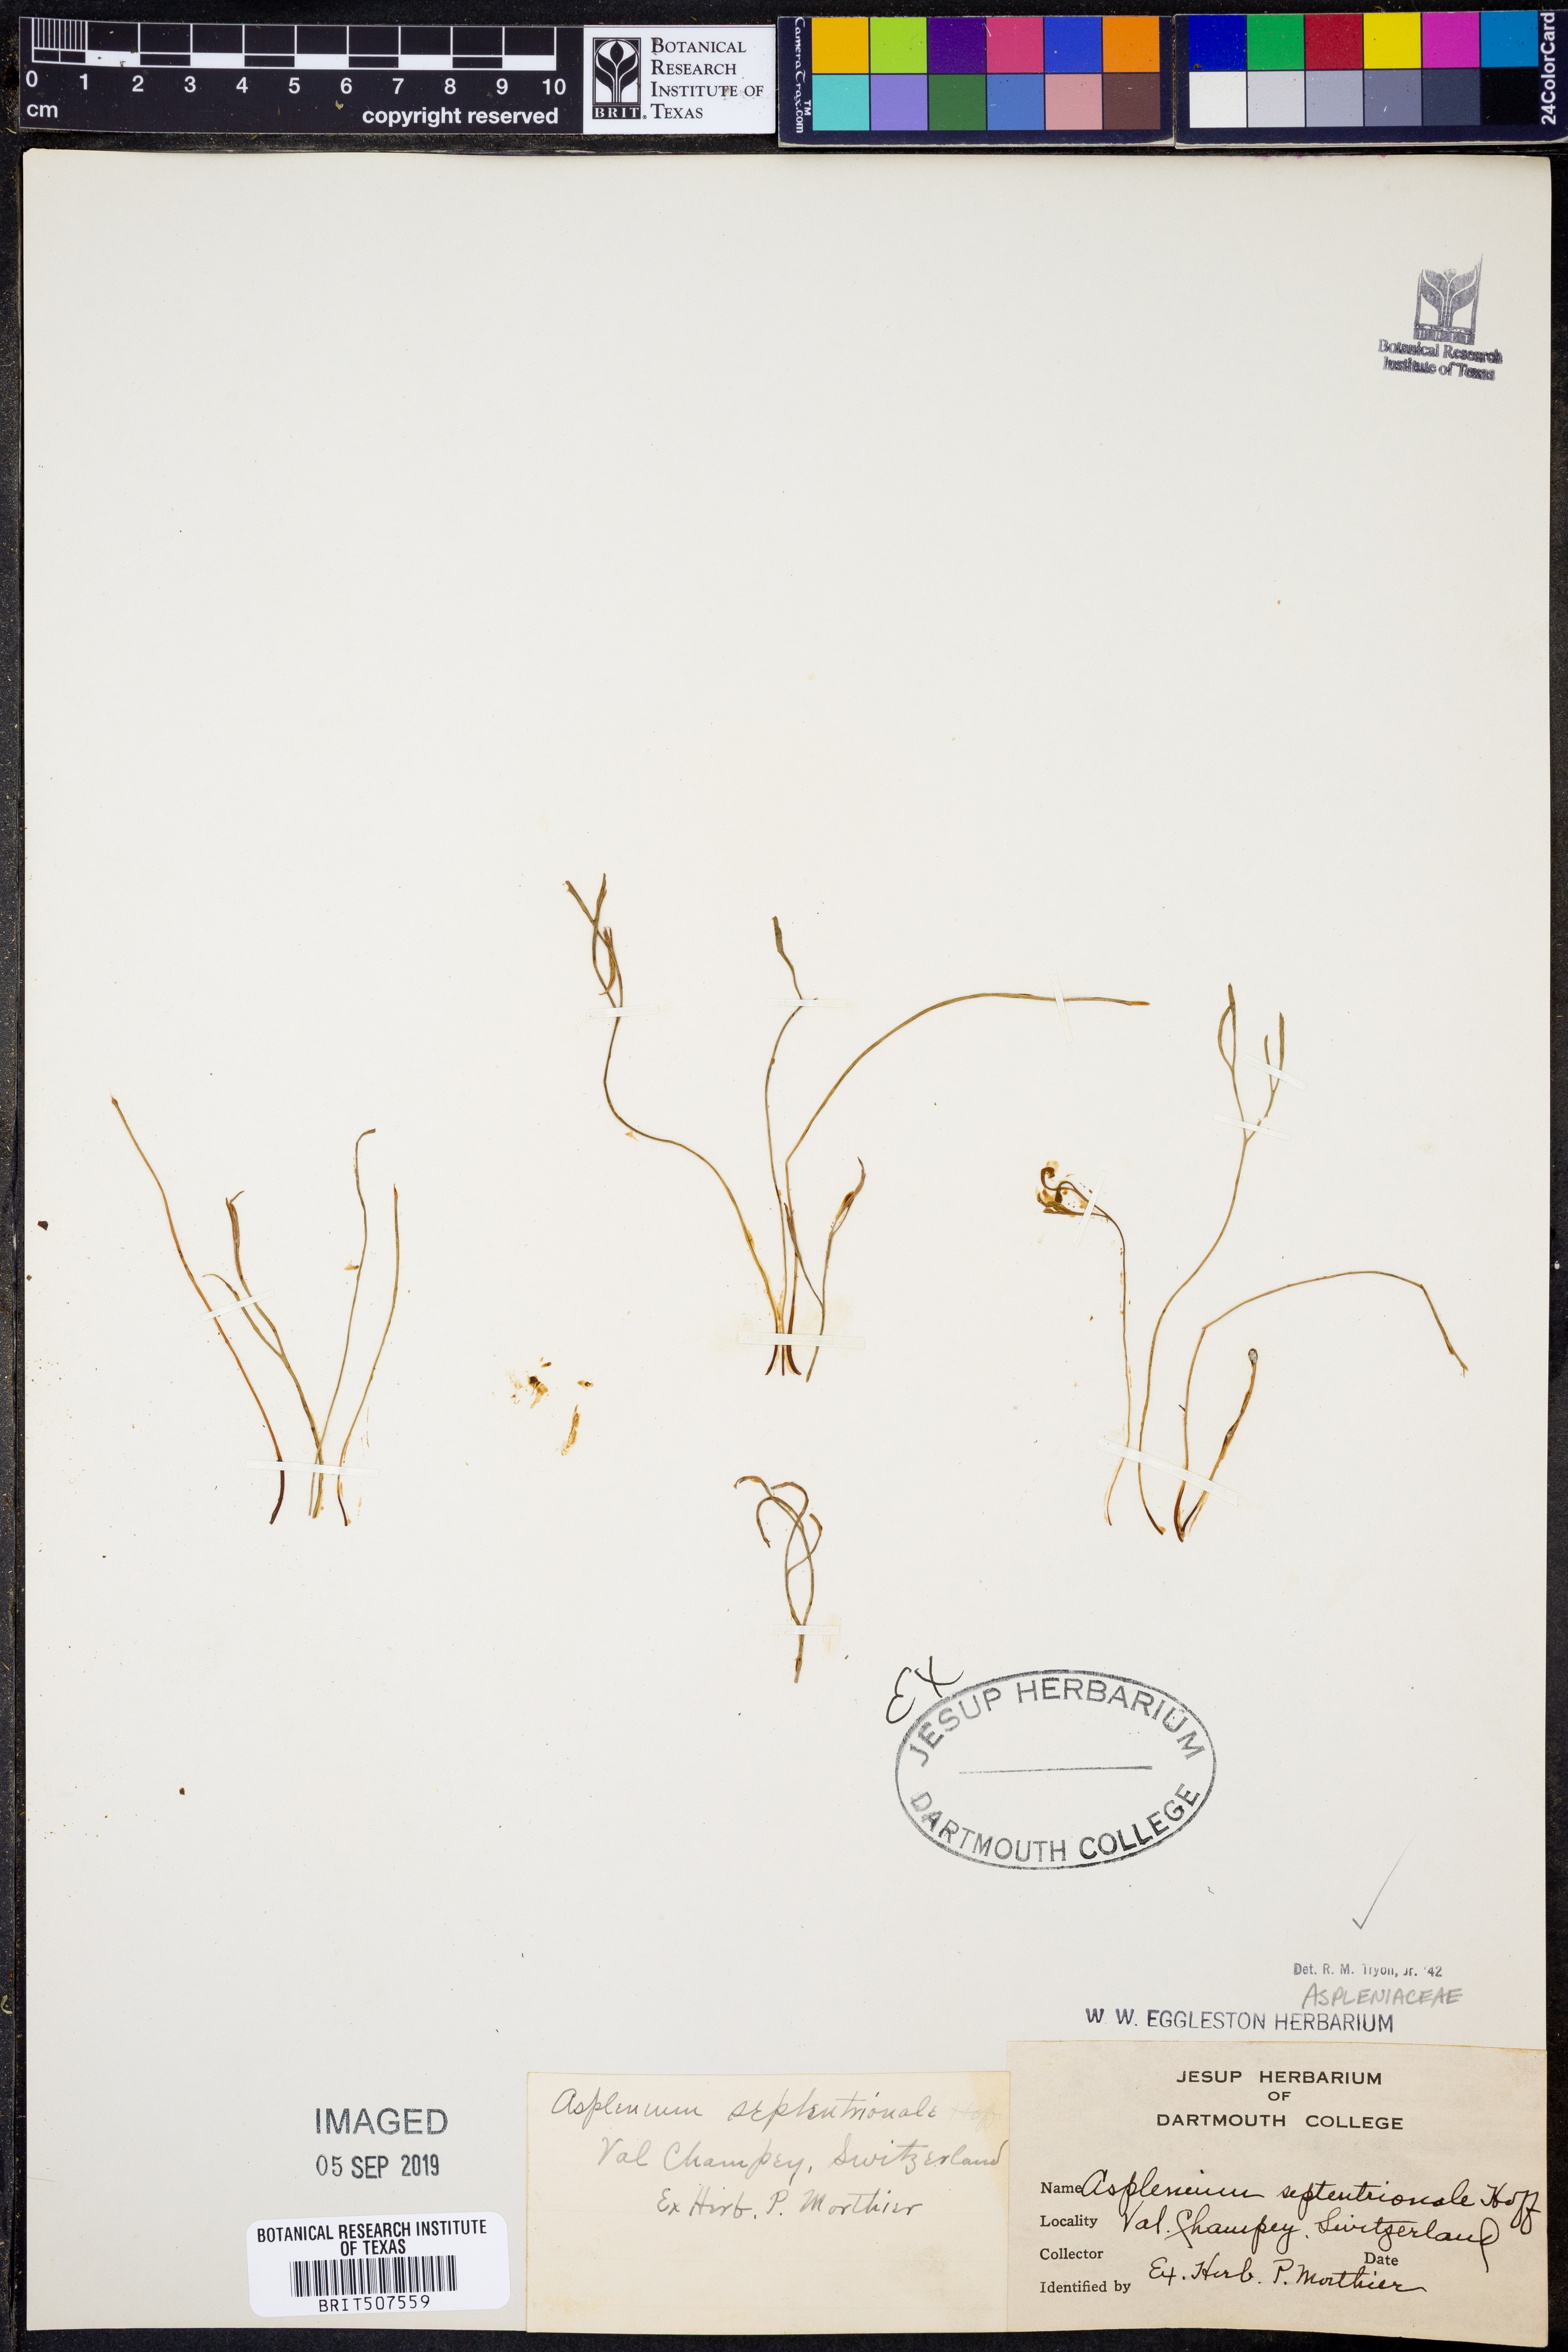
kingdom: Plantae
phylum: Tracheophyta
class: Polypodiopsida
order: Polypodiales
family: Aspleniaceae
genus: Asplenium
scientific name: Asplenium septentrionale
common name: Forked spleenwort
